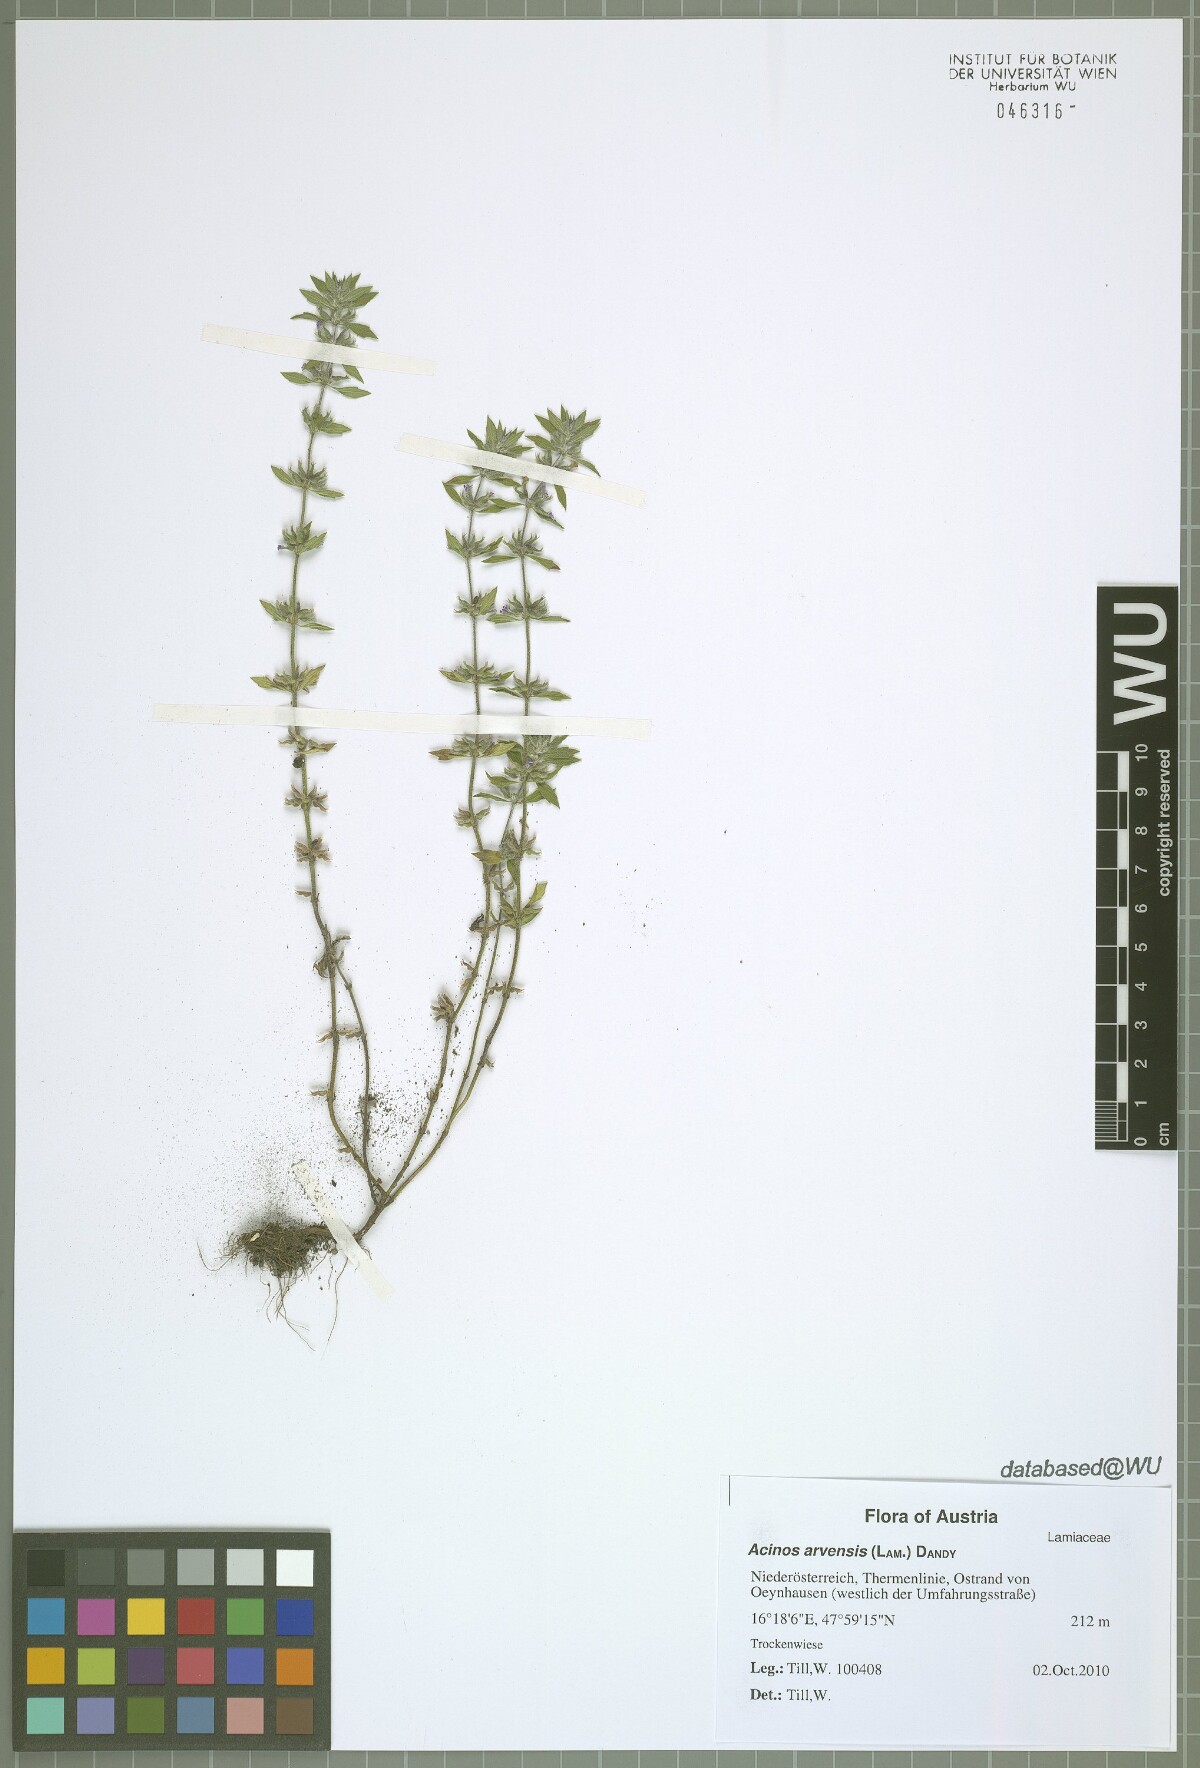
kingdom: Plantae
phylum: Tracheophyta
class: Magnoliopsida
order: Lamiales
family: Lamiaceae
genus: Clinopodium
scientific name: Clinopodium acinos
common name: Basil thyme
